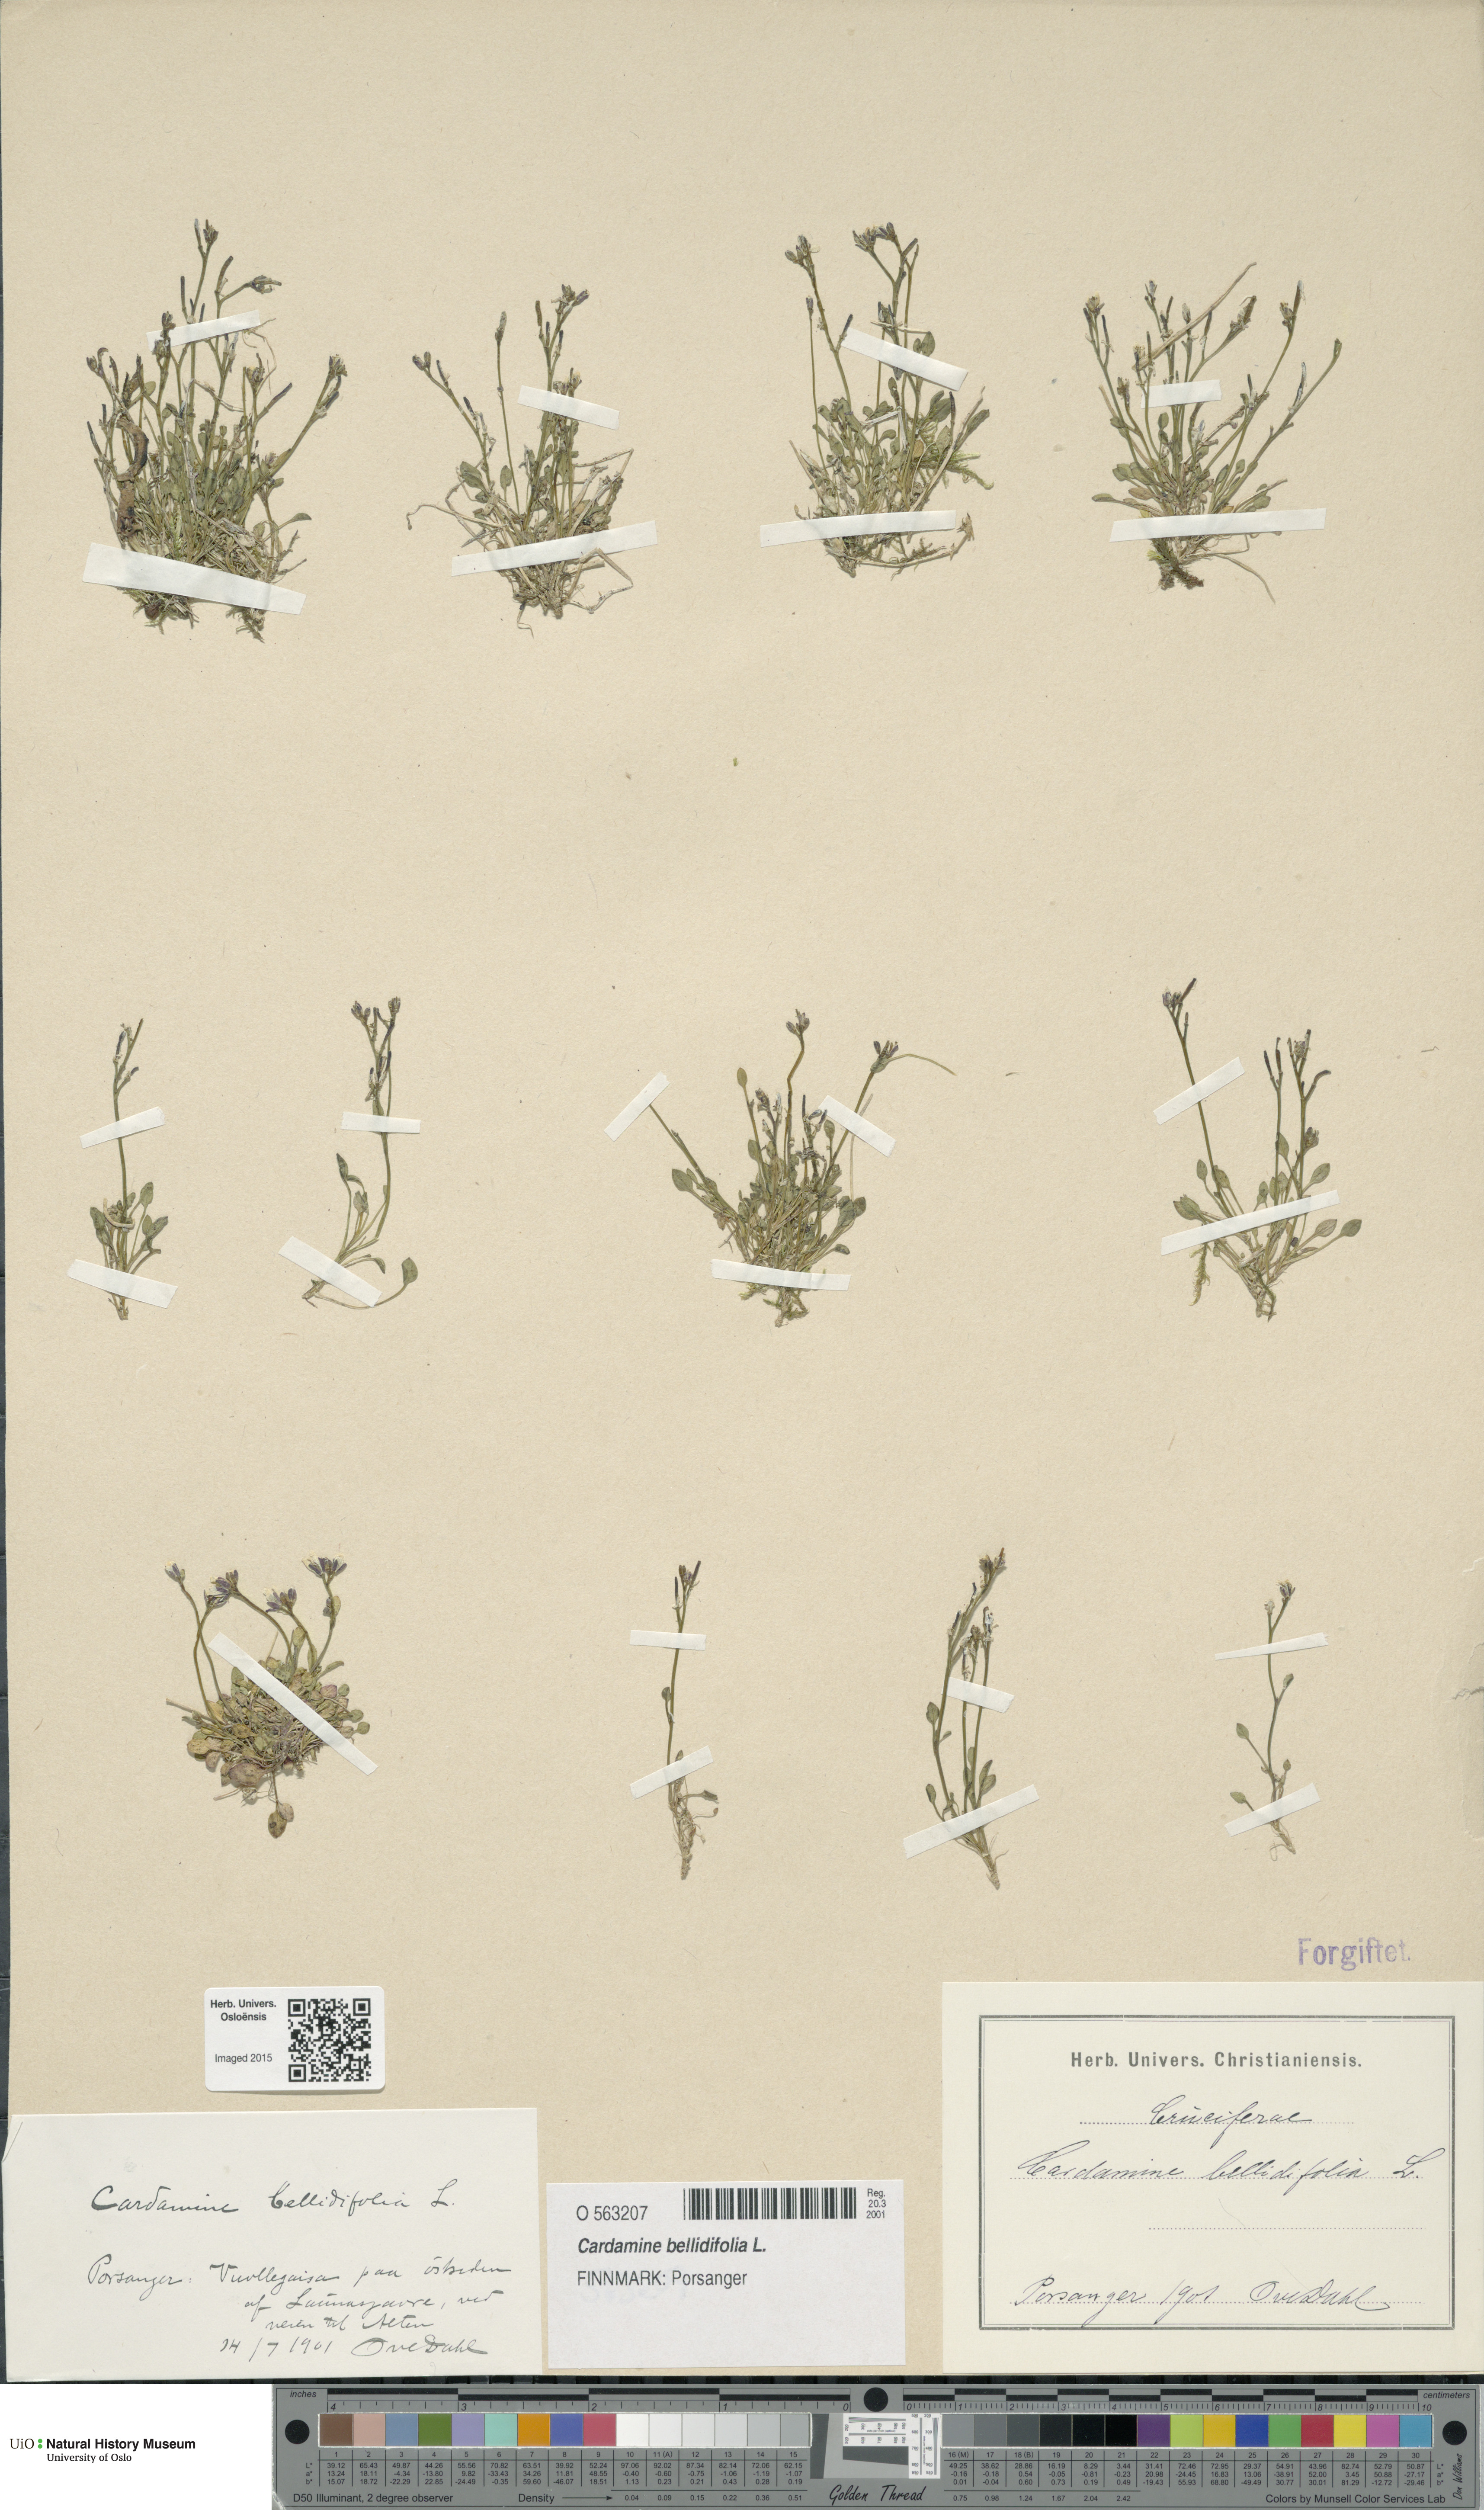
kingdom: Plantae
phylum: Tracheophyta
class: Magnoliopsida
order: Brassicales
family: Brassicaceae
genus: Cardamine
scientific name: Cardamine bellidifolia
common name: Alpine bittercress
